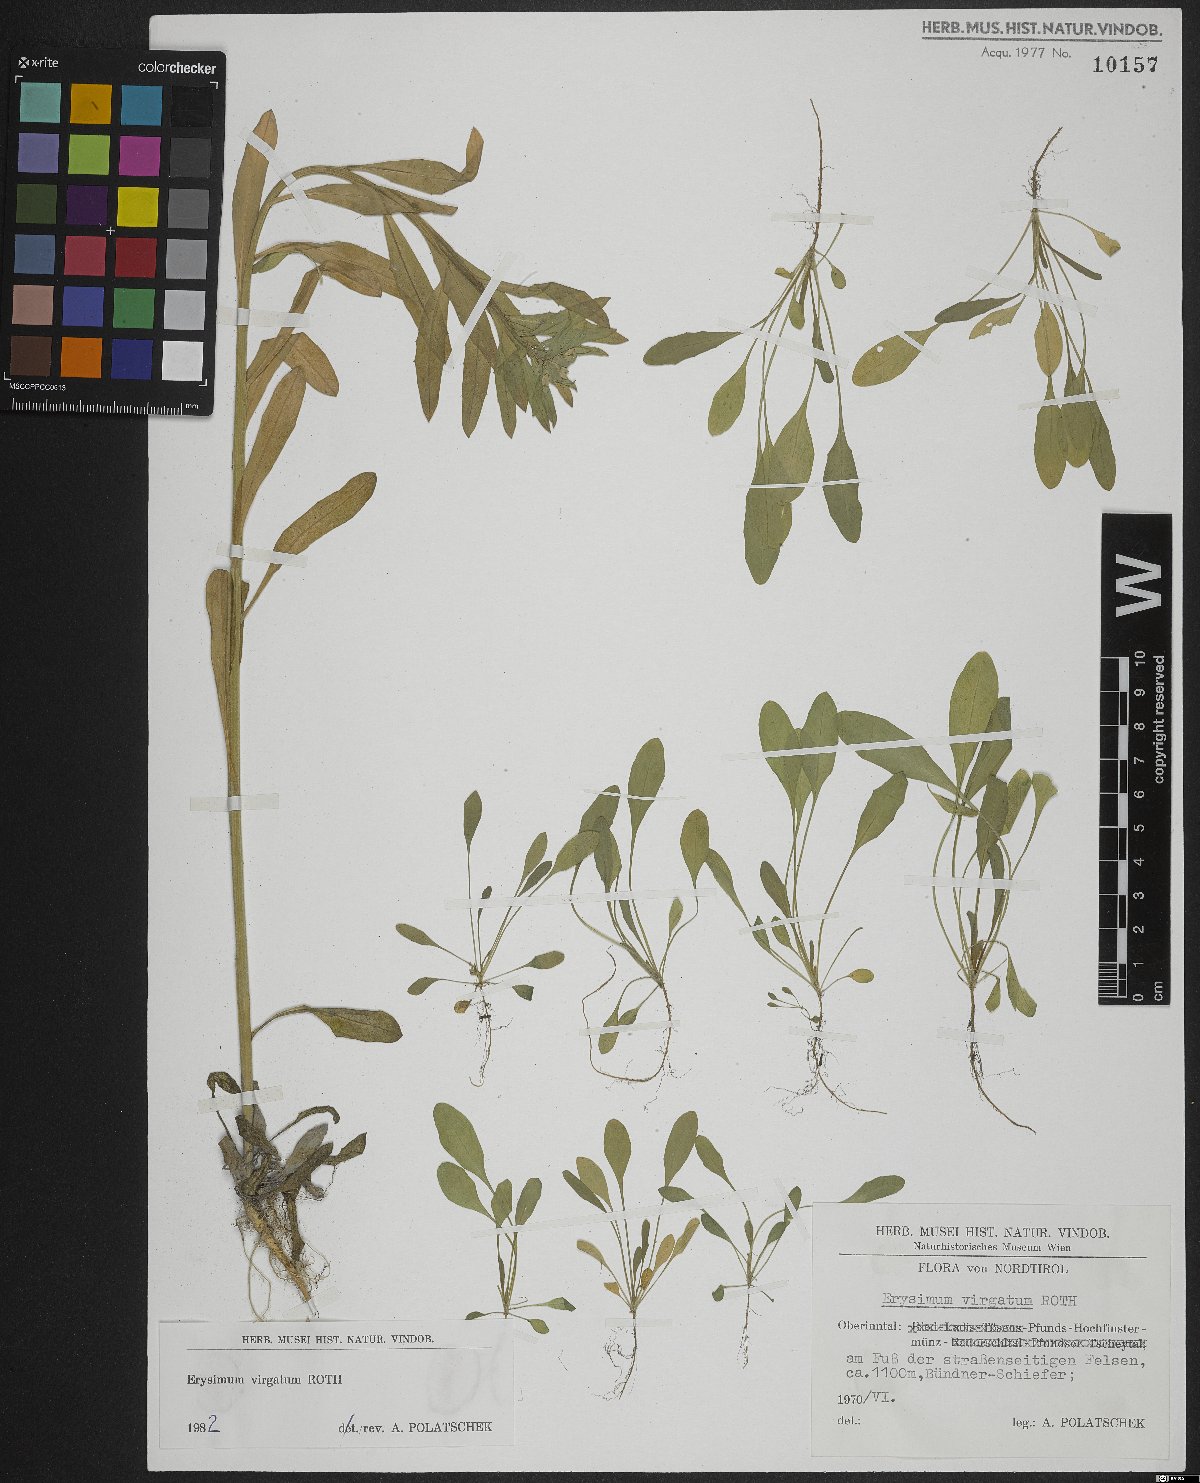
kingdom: Plantae
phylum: Tracheophyta
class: Magnoliopsida
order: Brassicales
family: Brassicaceae
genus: Erysimum
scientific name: Erysimum virgatum
